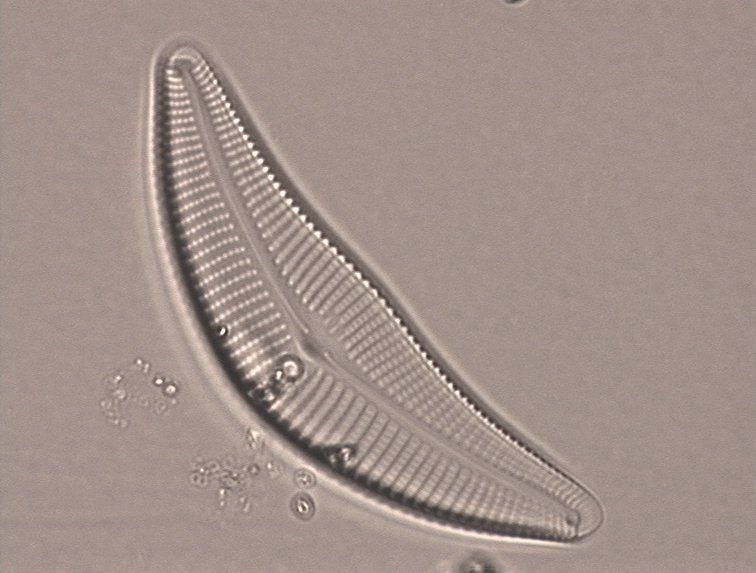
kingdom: Chromista
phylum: Ochrophyta
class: Bacillariophyceae
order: Bacillariales
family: Bacillariaceae
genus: Bacillaria
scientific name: Bacillaria cistula
